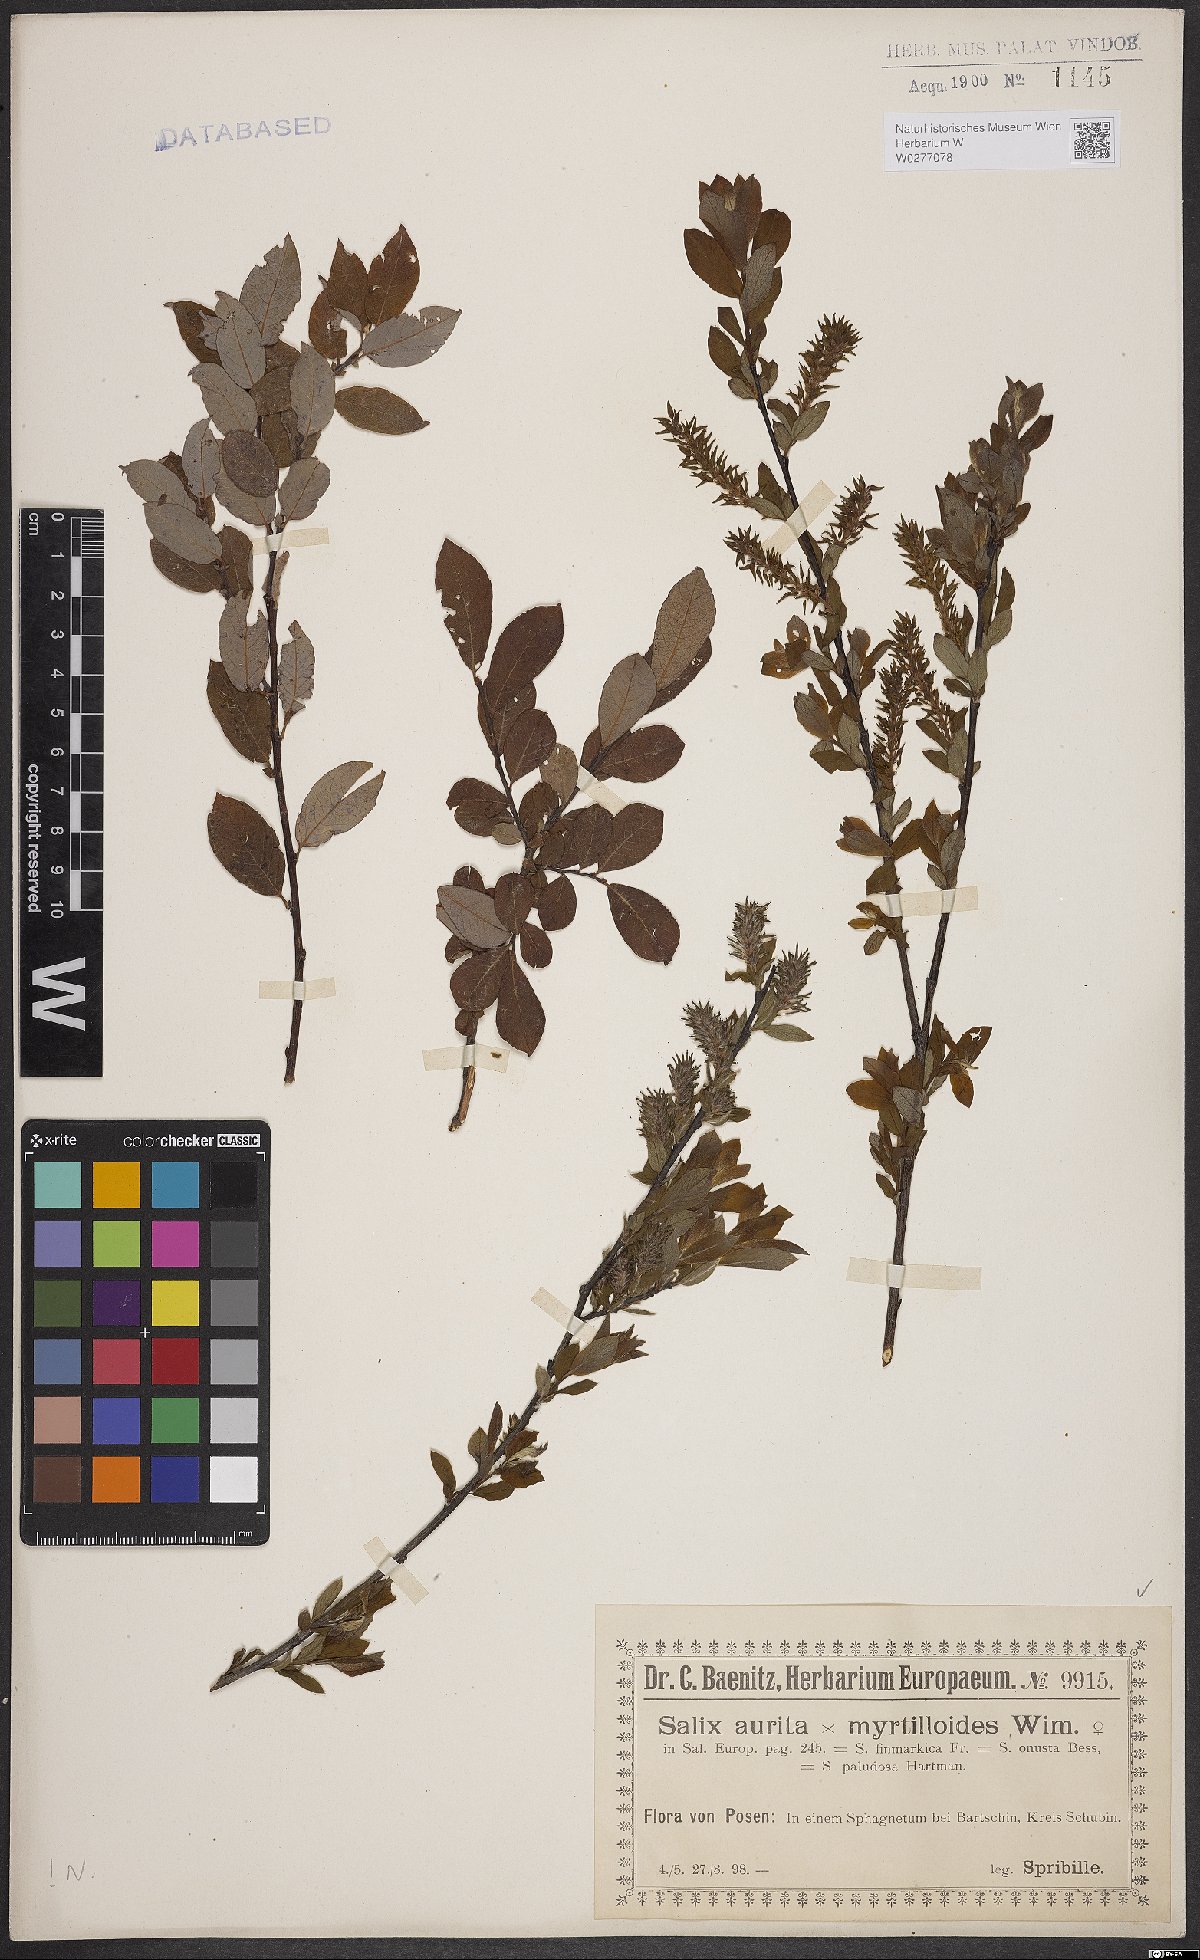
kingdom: Plantae
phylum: Tracheophyta
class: Magnoliopsida
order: Malpighiales
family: Salicaceae
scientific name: Salicaceae
